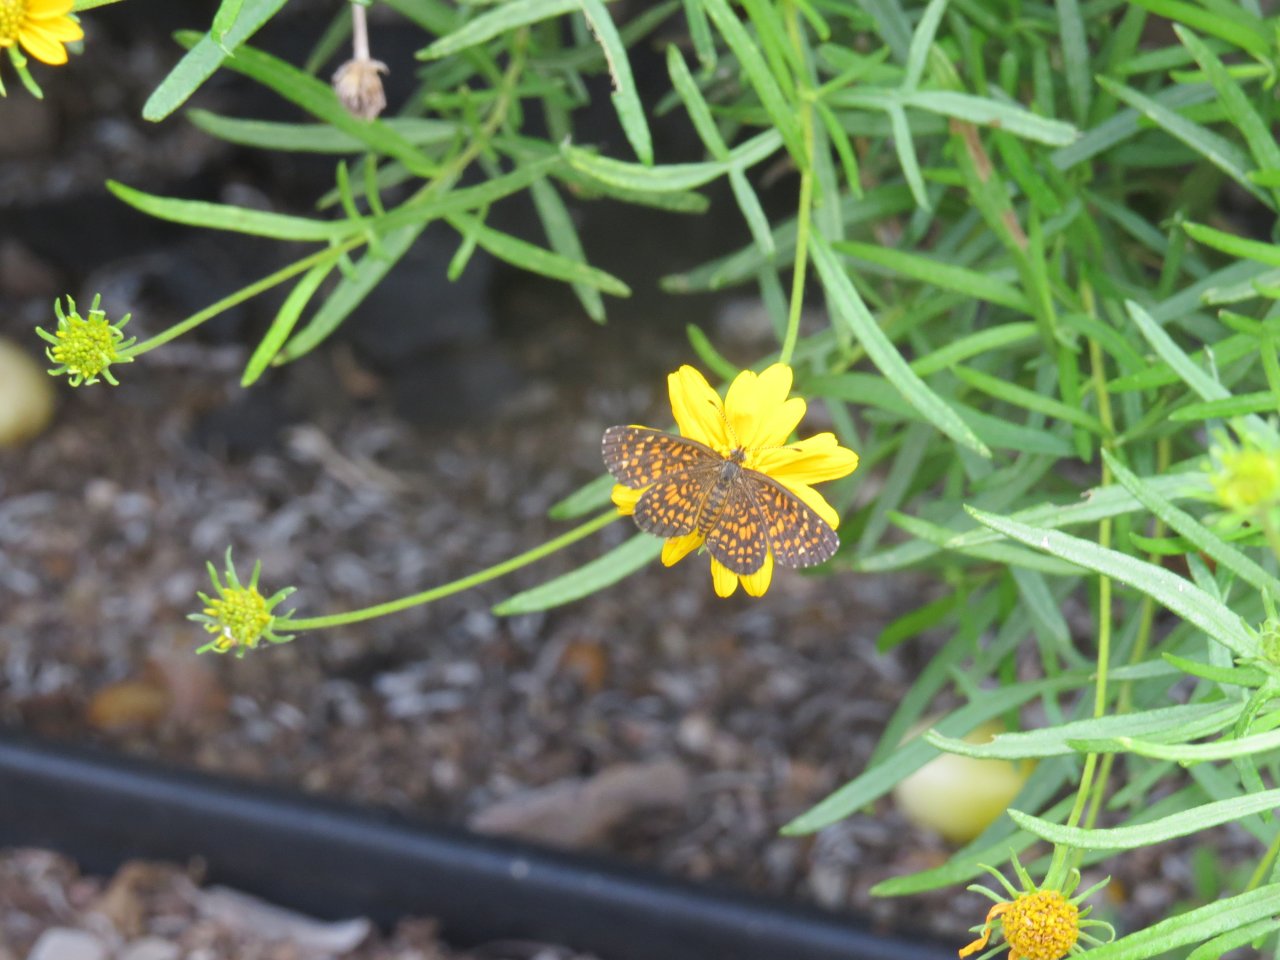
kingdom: Animalia
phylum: Arthropoda
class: Insecta
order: Lepidoptera
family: Nymphalidae
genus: Texola
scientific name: Texola elada
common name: Elada Checkerspot
